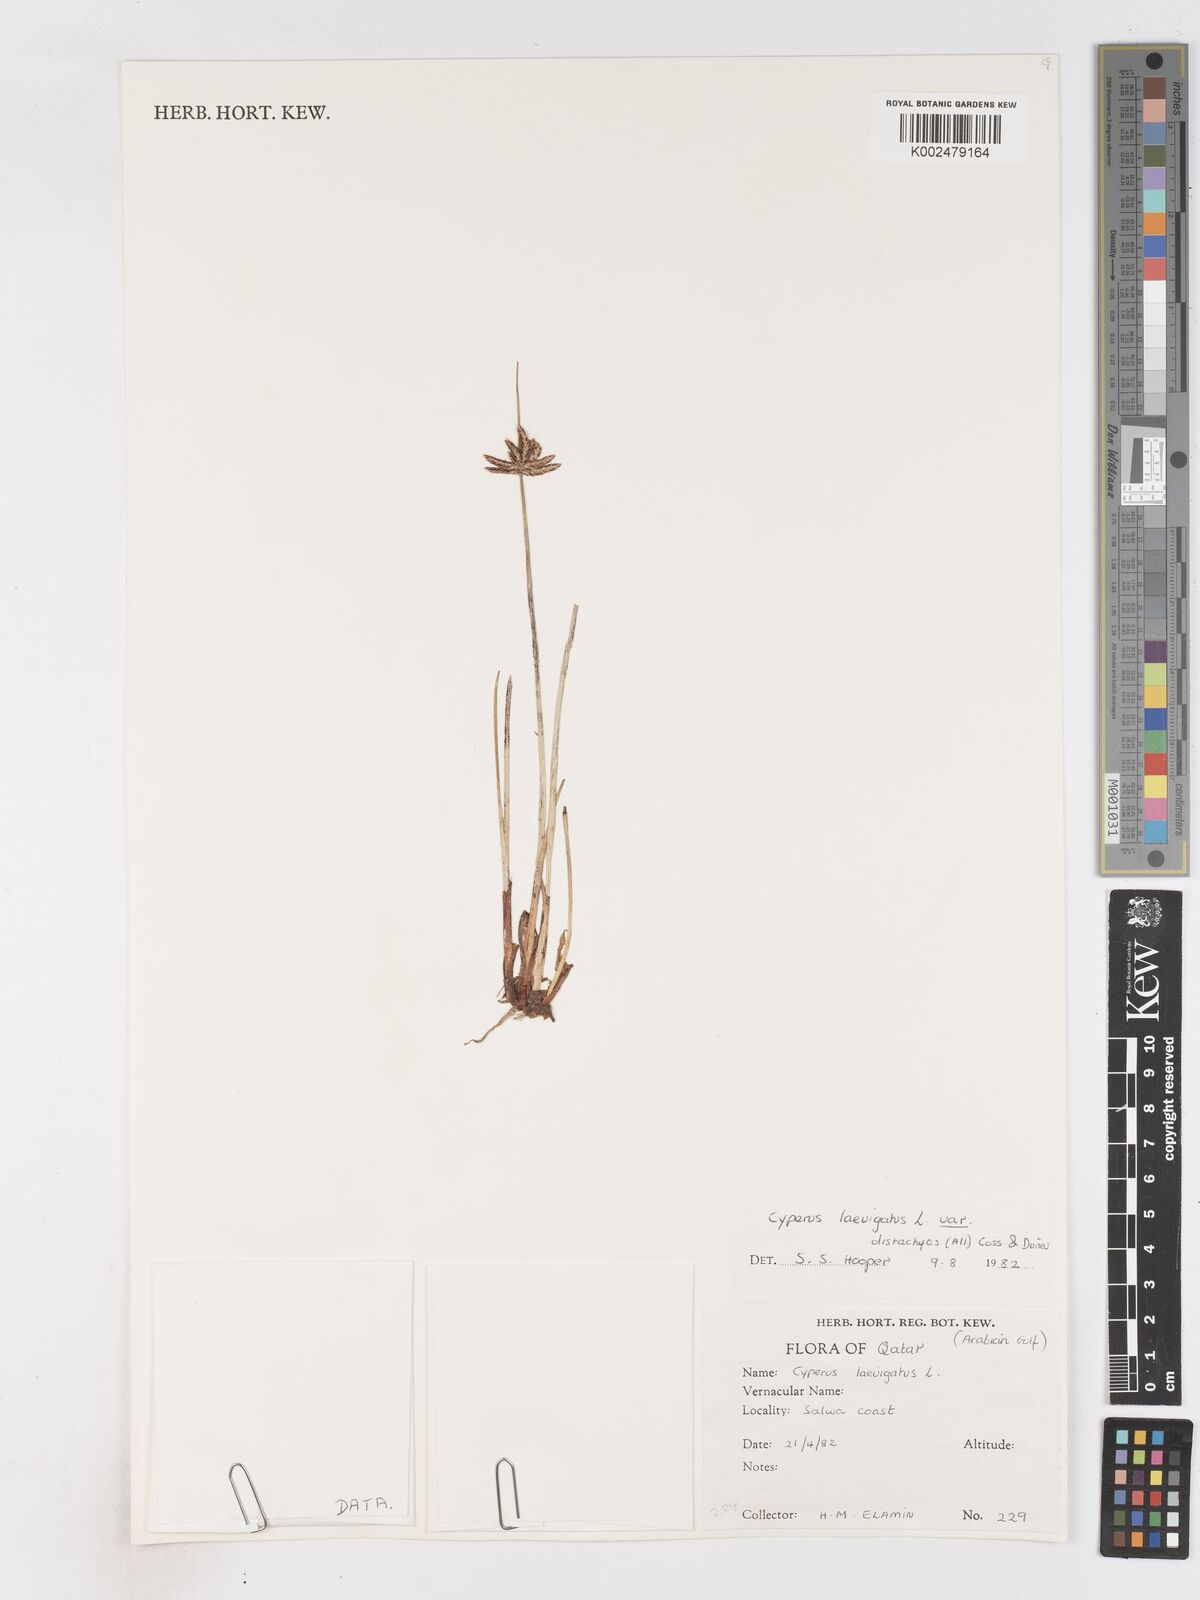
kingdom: Plantae
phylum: Tracheophyta
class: Liliopsida
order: Poales
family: Cyperaceae
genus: Cyperus
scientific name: Cyperus laevigatus
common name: Smooth flat sedge
